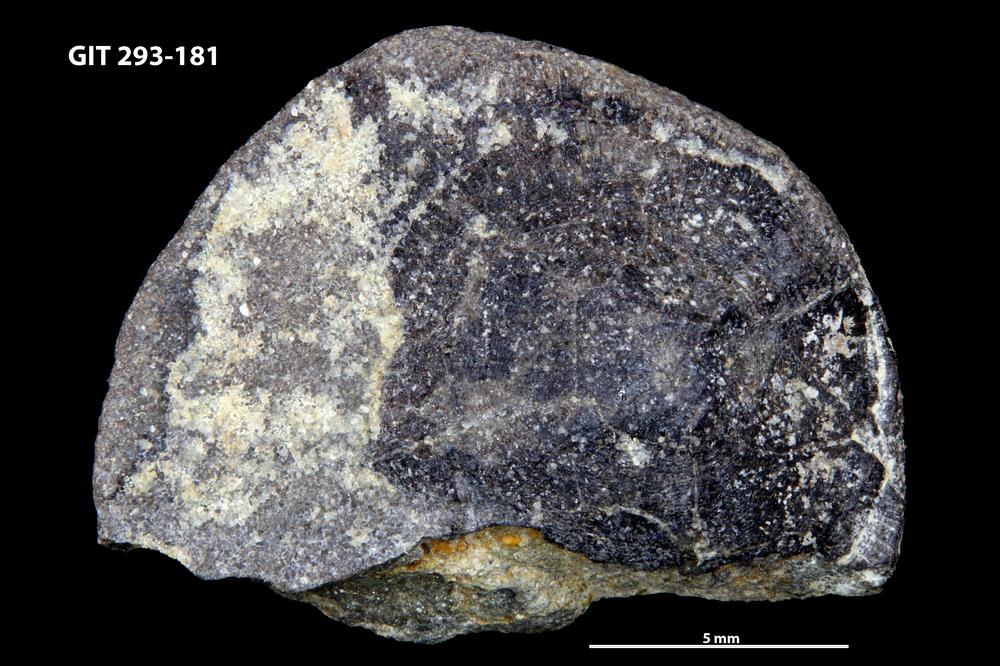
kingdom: Animalia
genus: Estoniadiscus
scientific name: Estoniadiscus
